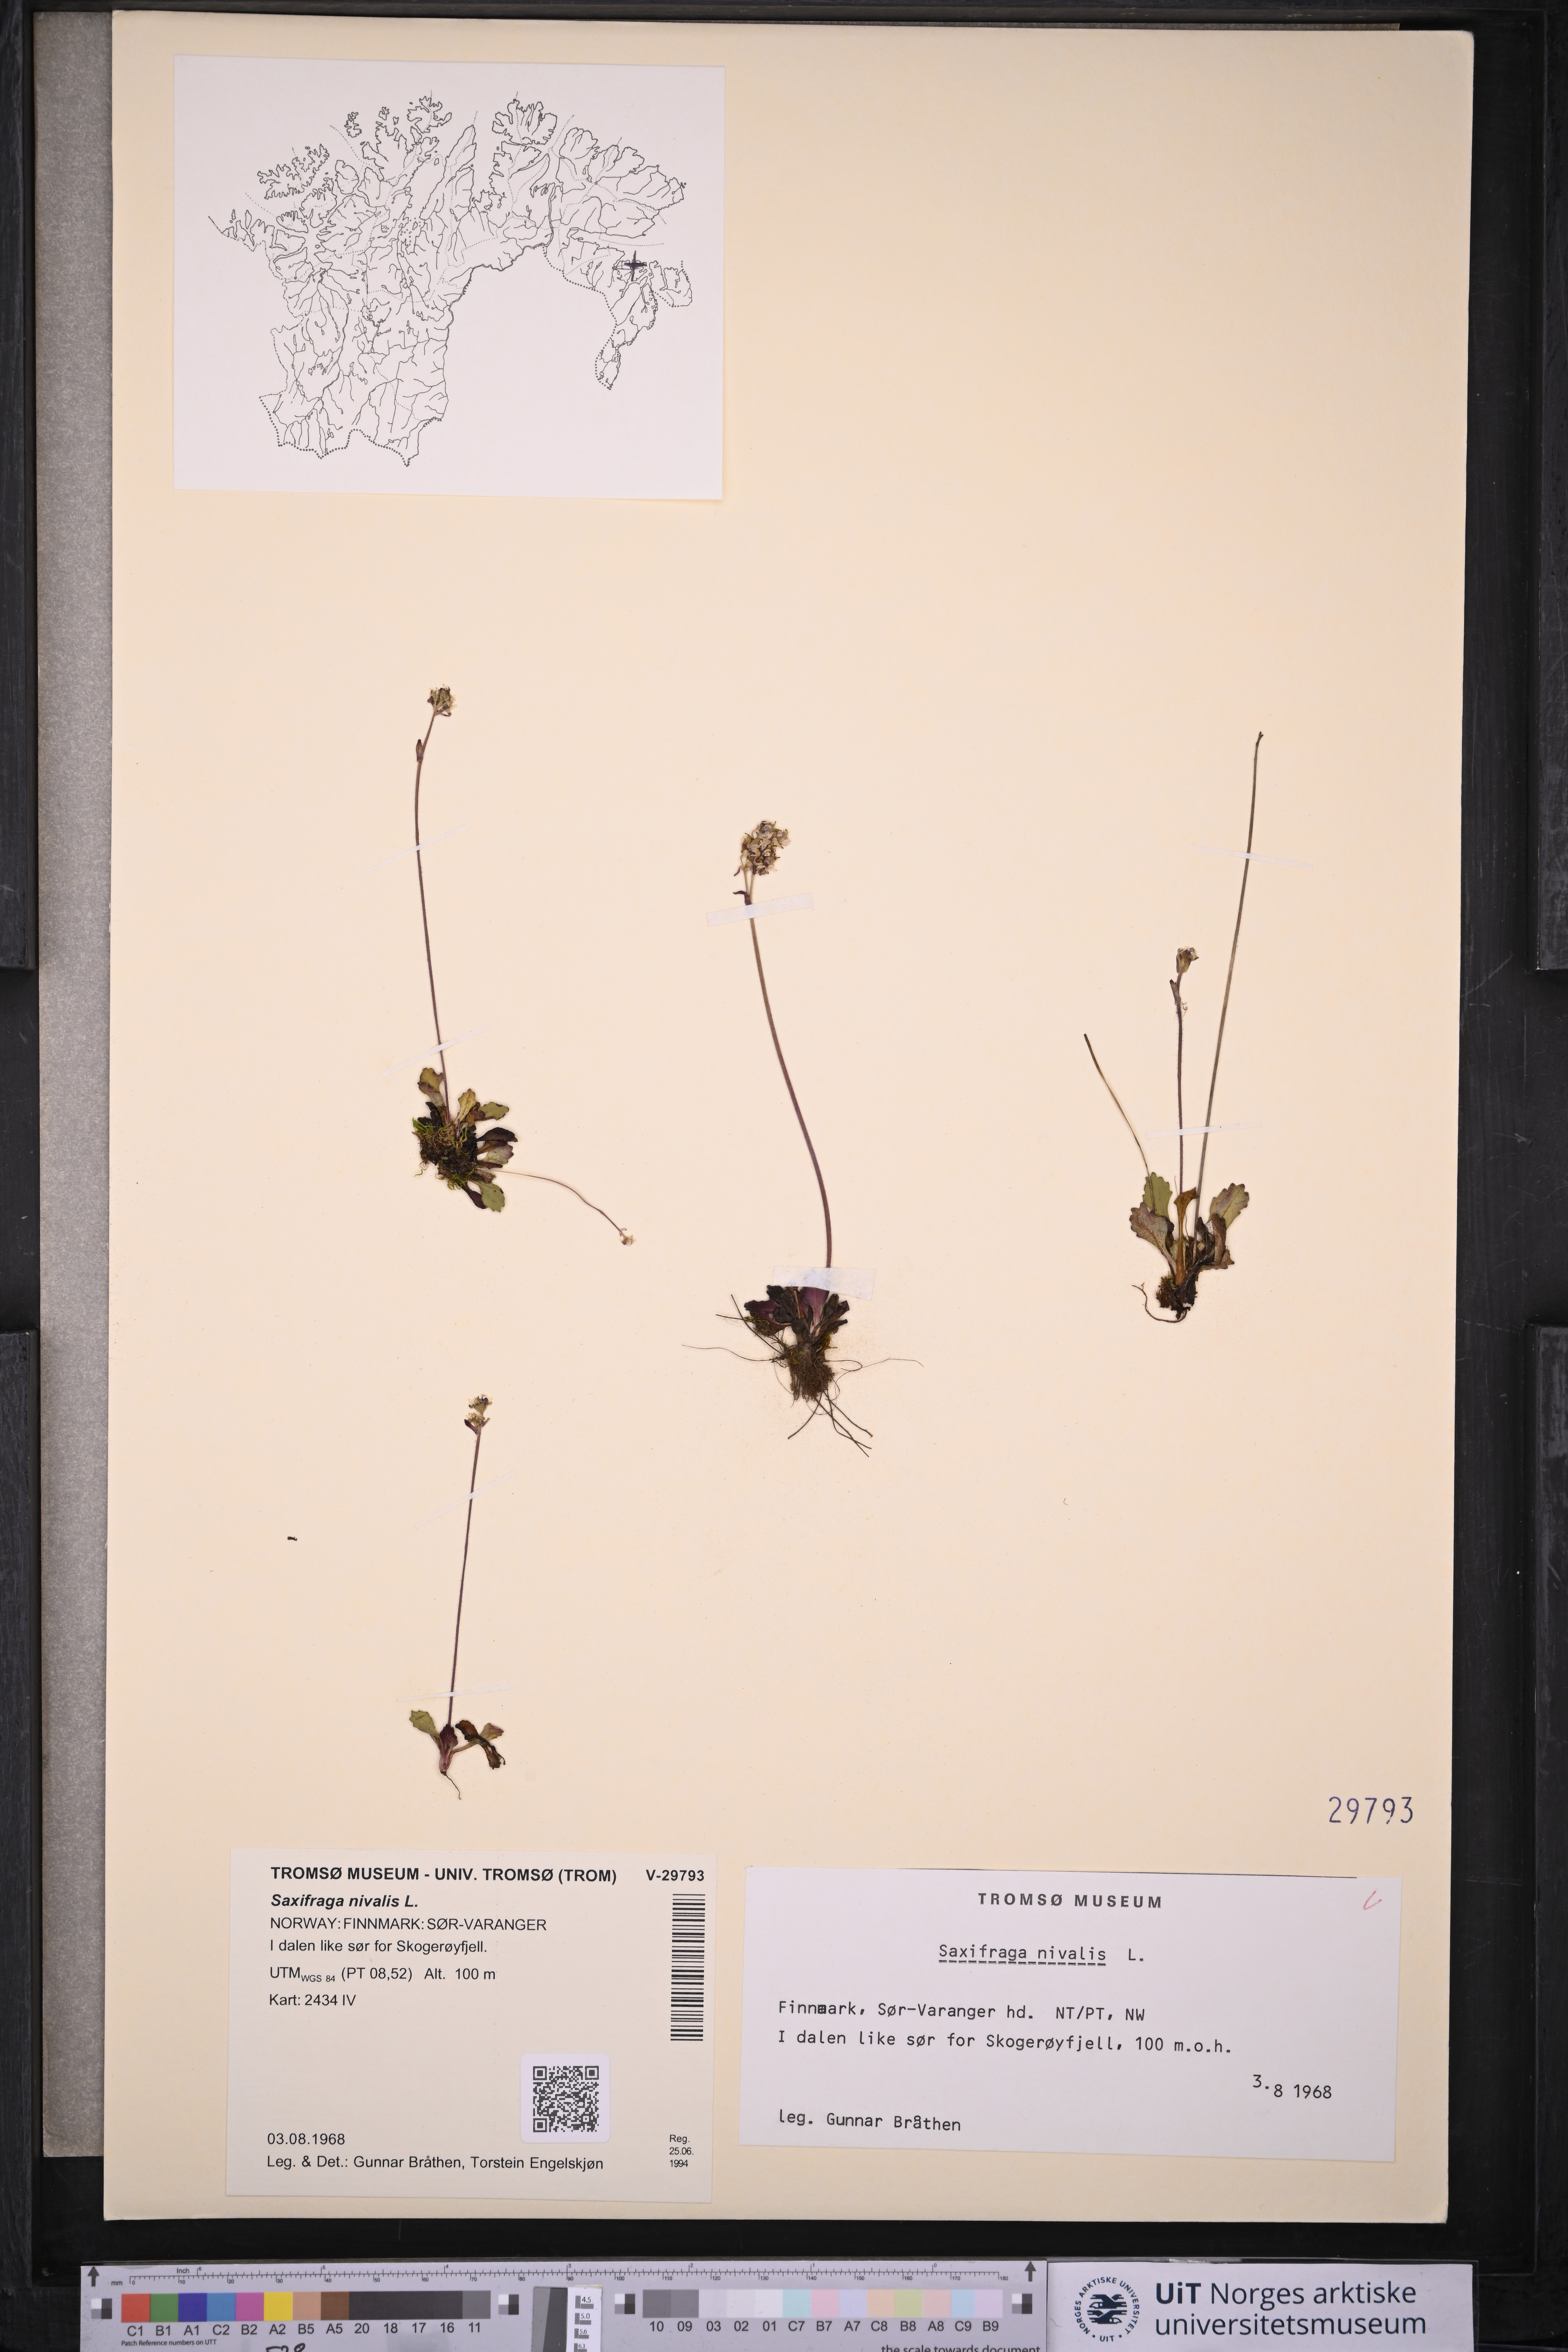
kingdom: Plantae
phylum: Tracheophyta
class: Magnoliopsida
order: Saxifragales
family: Saxifragaceae
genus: Micranthes
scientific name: Micranthes nivalis
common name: Alpine saxifrage
